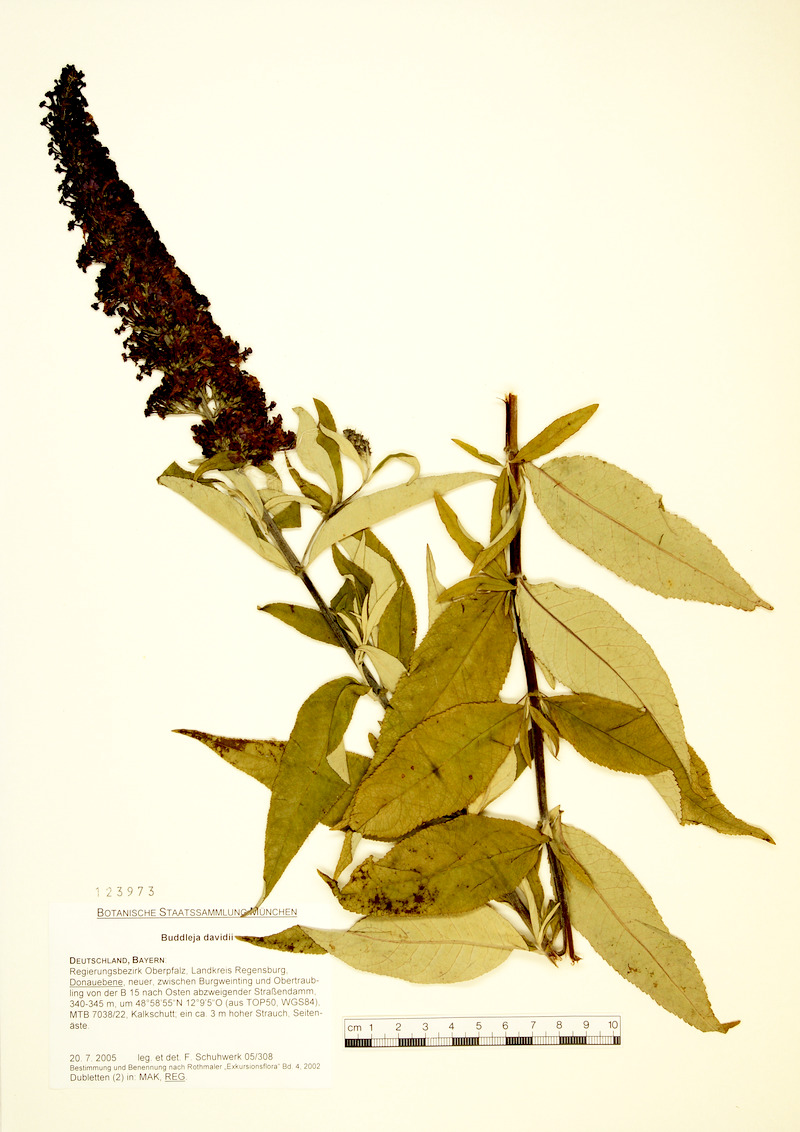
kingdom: Plantae
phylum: Tracheophyta
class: Magnoliopsida
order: Lamiales
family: Scrophulariaceae
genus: Buddleja
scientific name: Buddleja davidii
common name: Butterfly-bush
